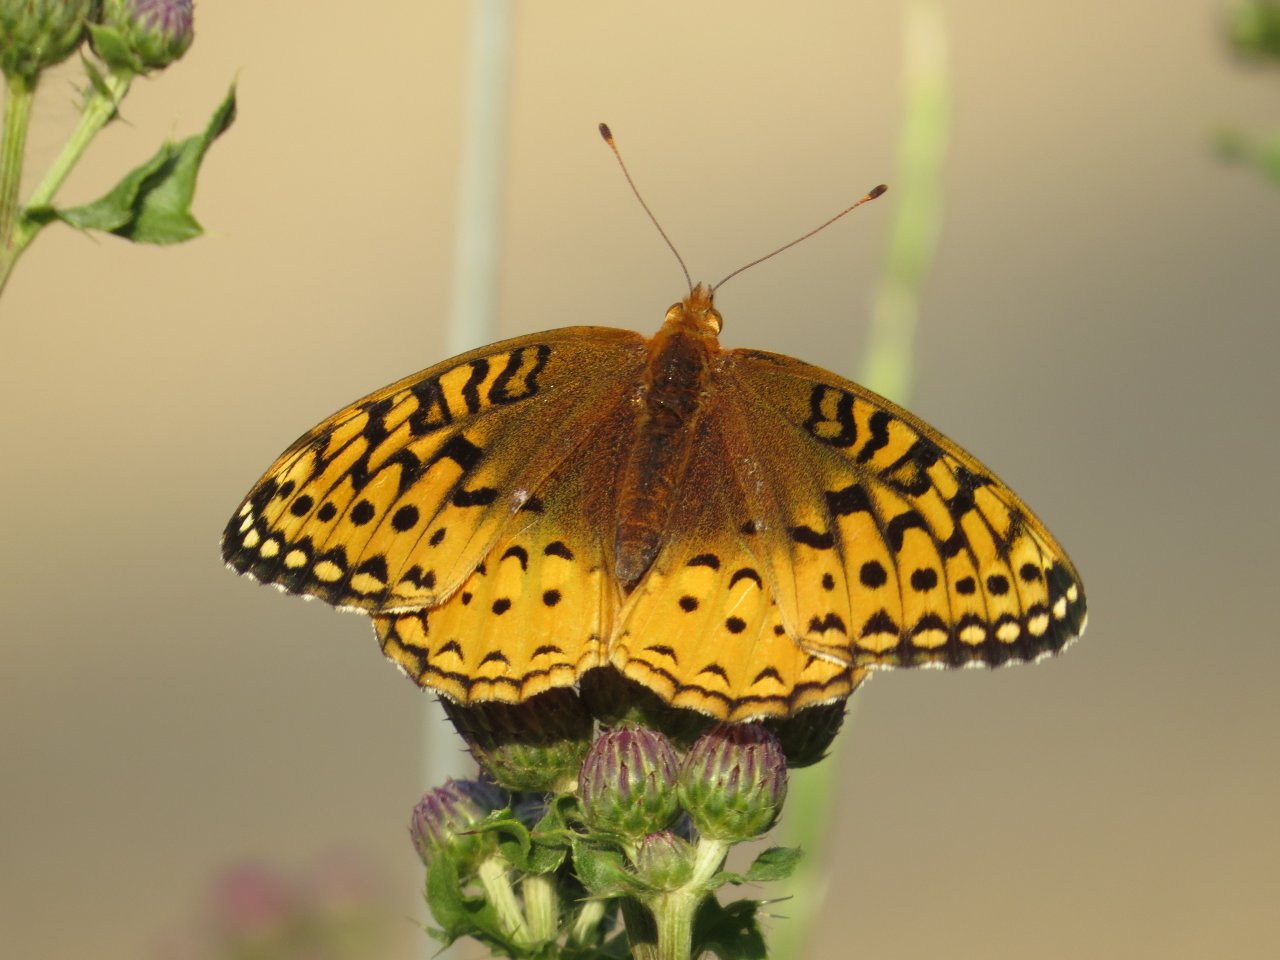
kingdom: Animalia
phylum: Arthropoda
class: Insecta
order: Lepidoptera
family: Nymphalidae
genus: Speyeria
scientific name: Speyeria cybele
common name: Great Spangled Fritillary
